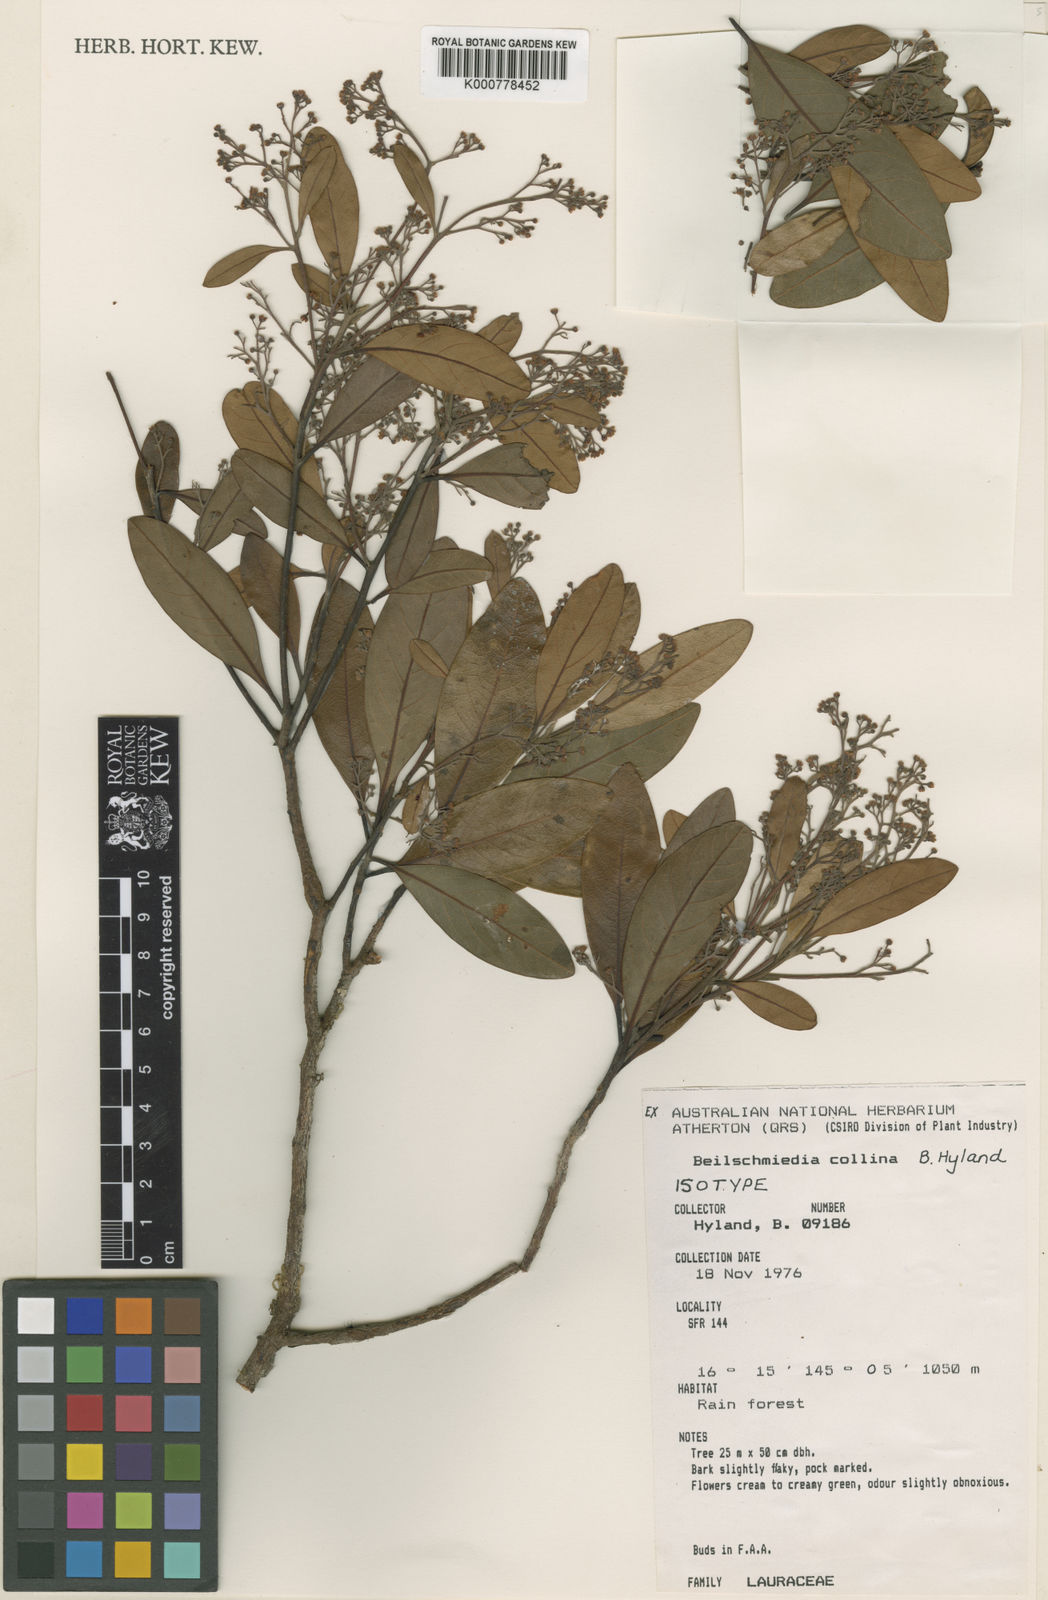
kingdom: Plantae
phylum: Tracheophyta
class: Magnoliopsida
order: Laurales
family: Lauraceae
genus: Beilschmiedia
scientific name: Beilschmiedia collina
